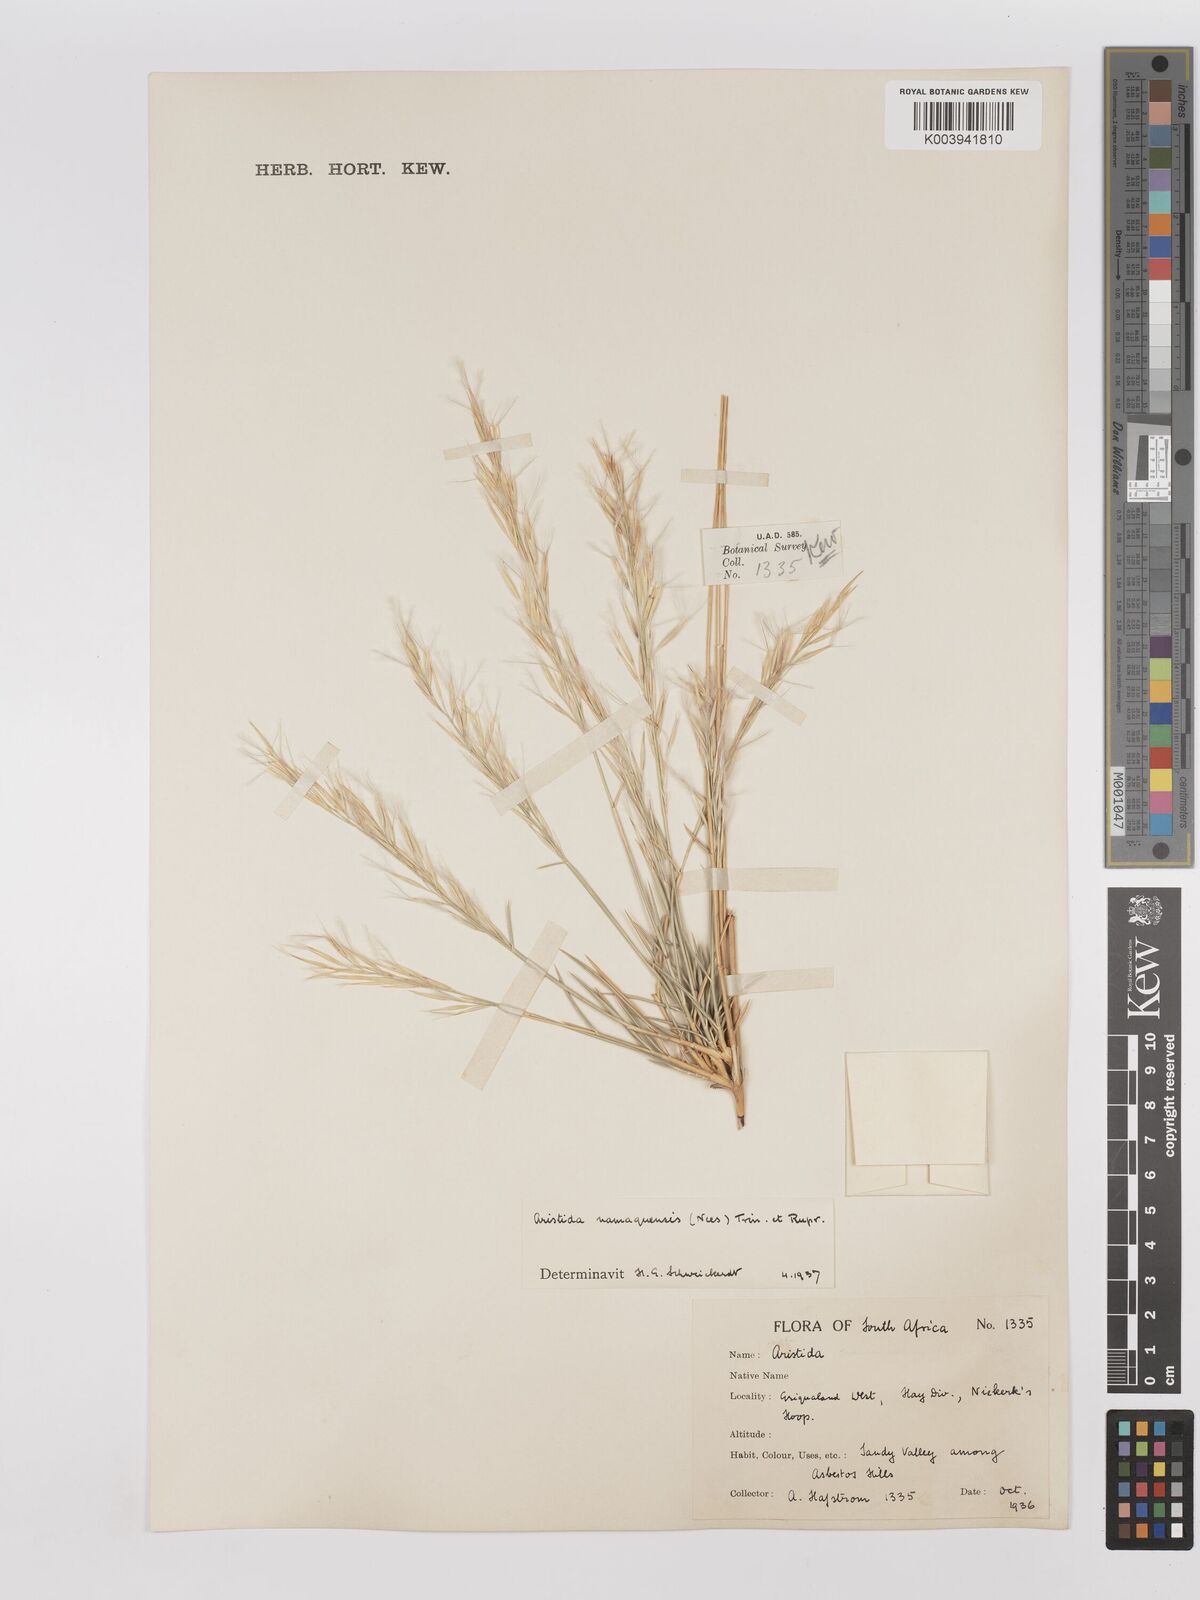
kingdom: Plantae
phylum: Tracheophyta
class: Liliopsida
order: Poales
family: Poaceae
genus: Stipagrostis
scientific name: Stipagrostis namaquensis
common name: River bushman grass
